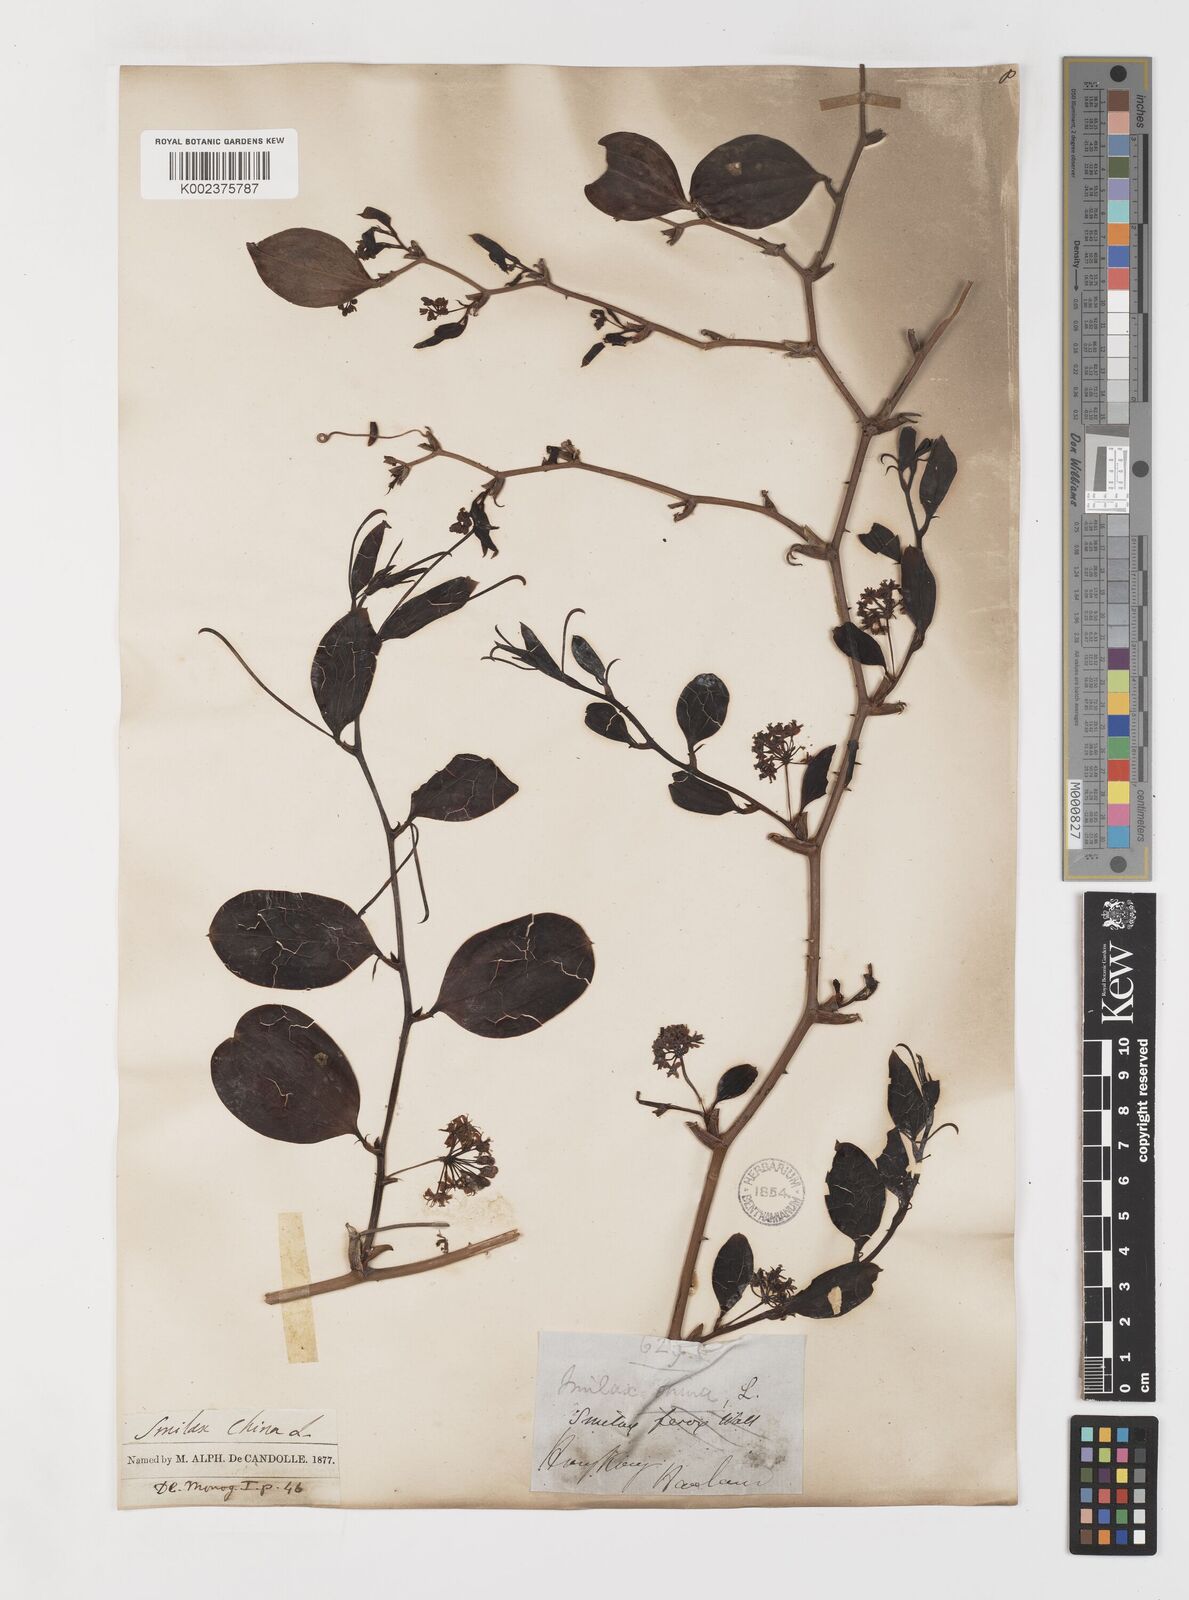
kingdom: Plantae
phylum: Tracheophyta
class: Liliopsida
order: Liliales
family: Smilacaceae
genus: Smilax
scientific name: Smilax china
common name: Chinaroot
